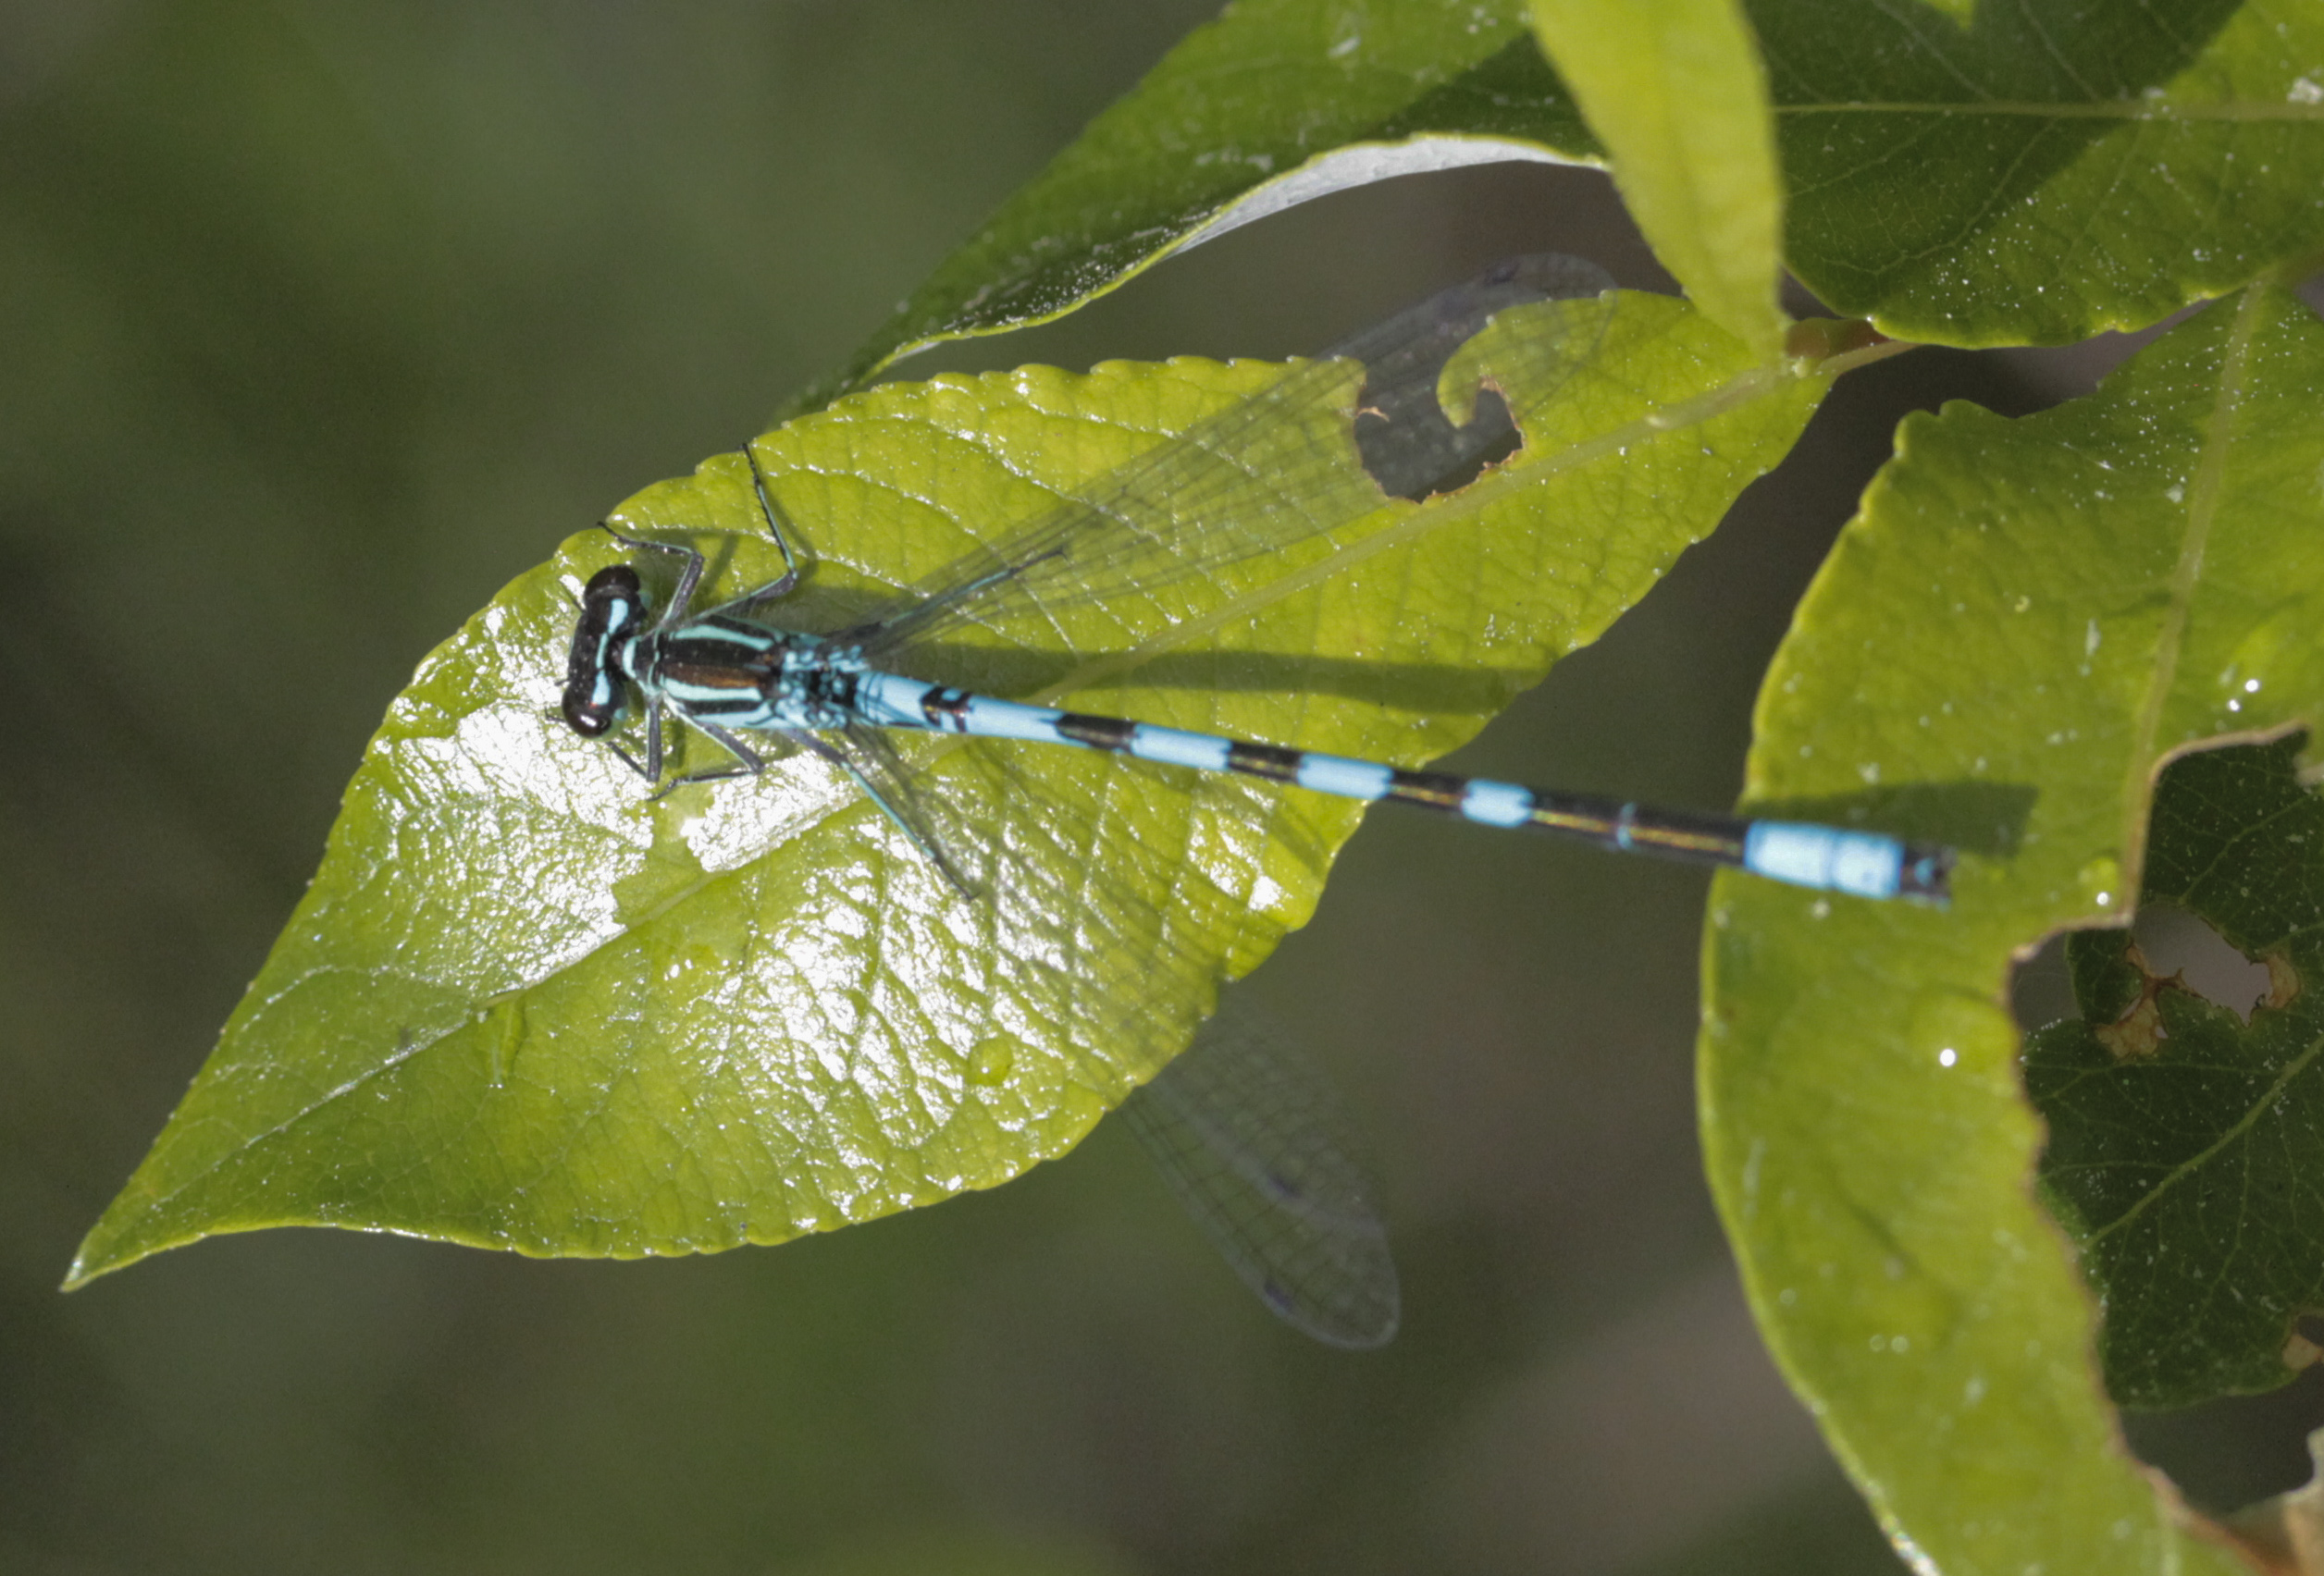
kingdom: Animalia
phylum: Arthropoda
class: Insecta
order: Odonata
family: Coenagrionidae
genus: Coenagrion
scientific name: Coenagrion hastulatum
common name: Spearhead bluet
